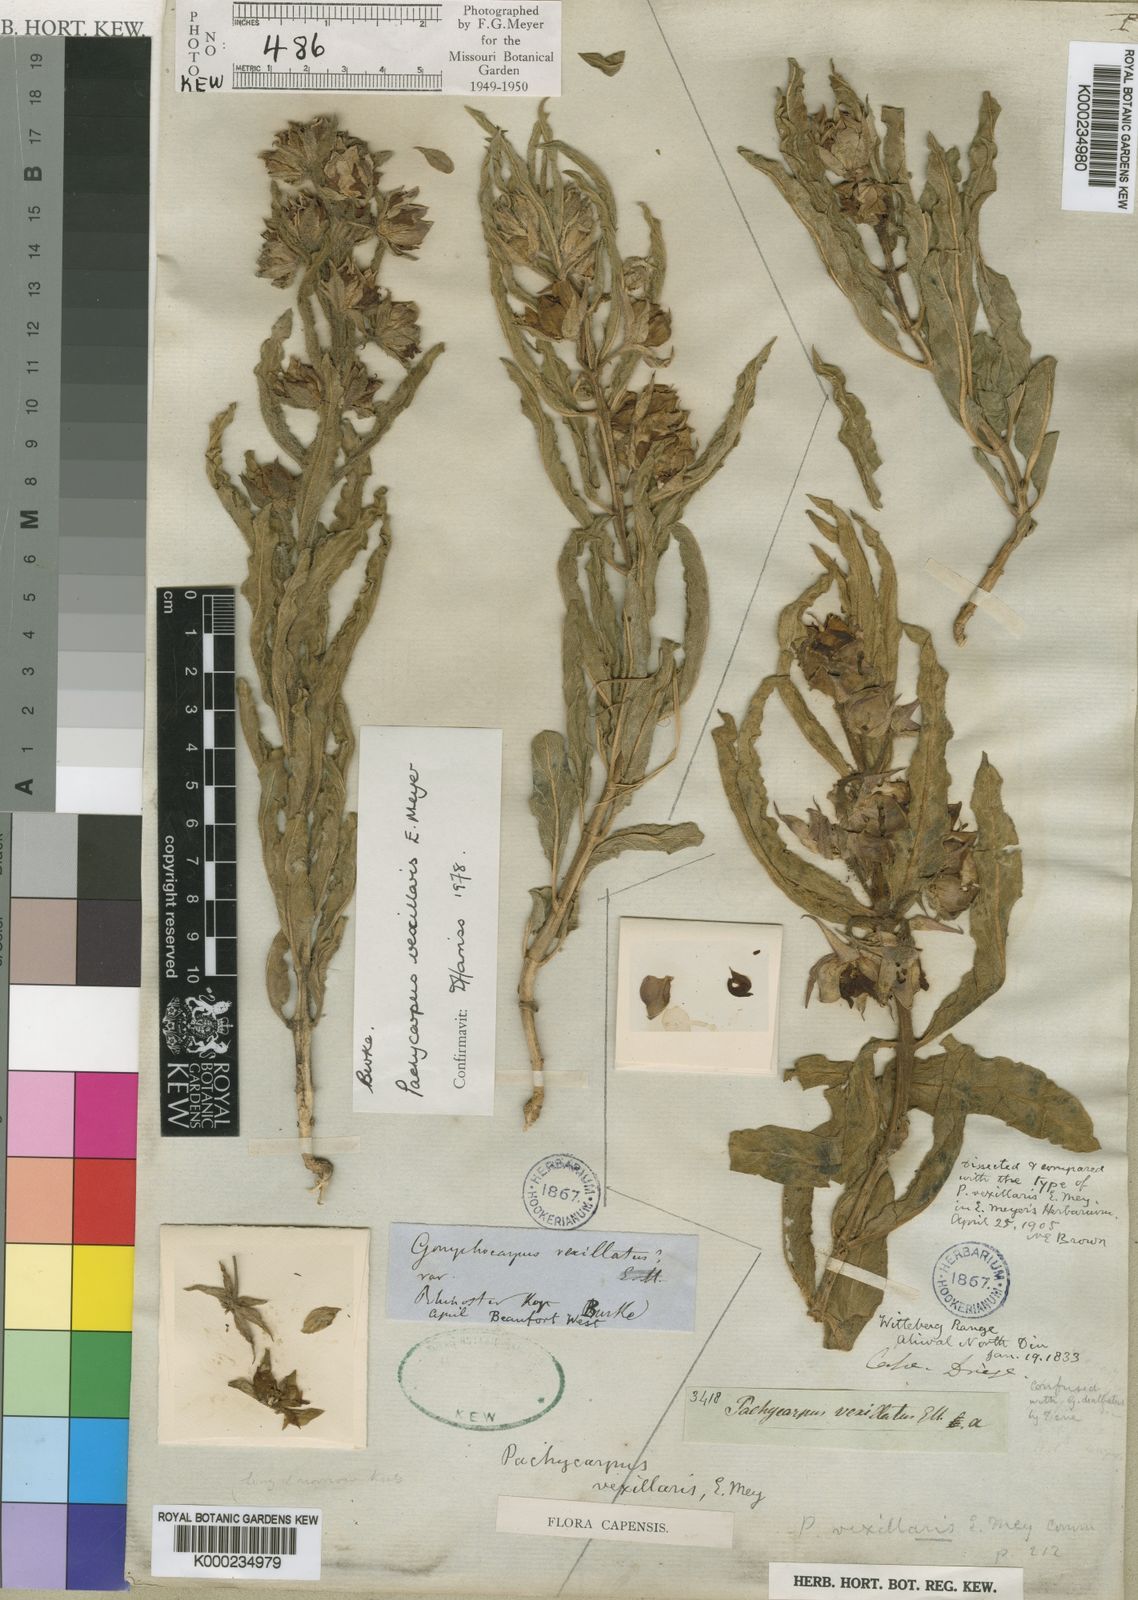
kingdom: Plantae
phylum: Tracheophyta
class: Magnoliopsida
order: Gentianales
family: Apocynaceae
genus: Pachycarpus
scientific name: Pachycarpus vexillaris
